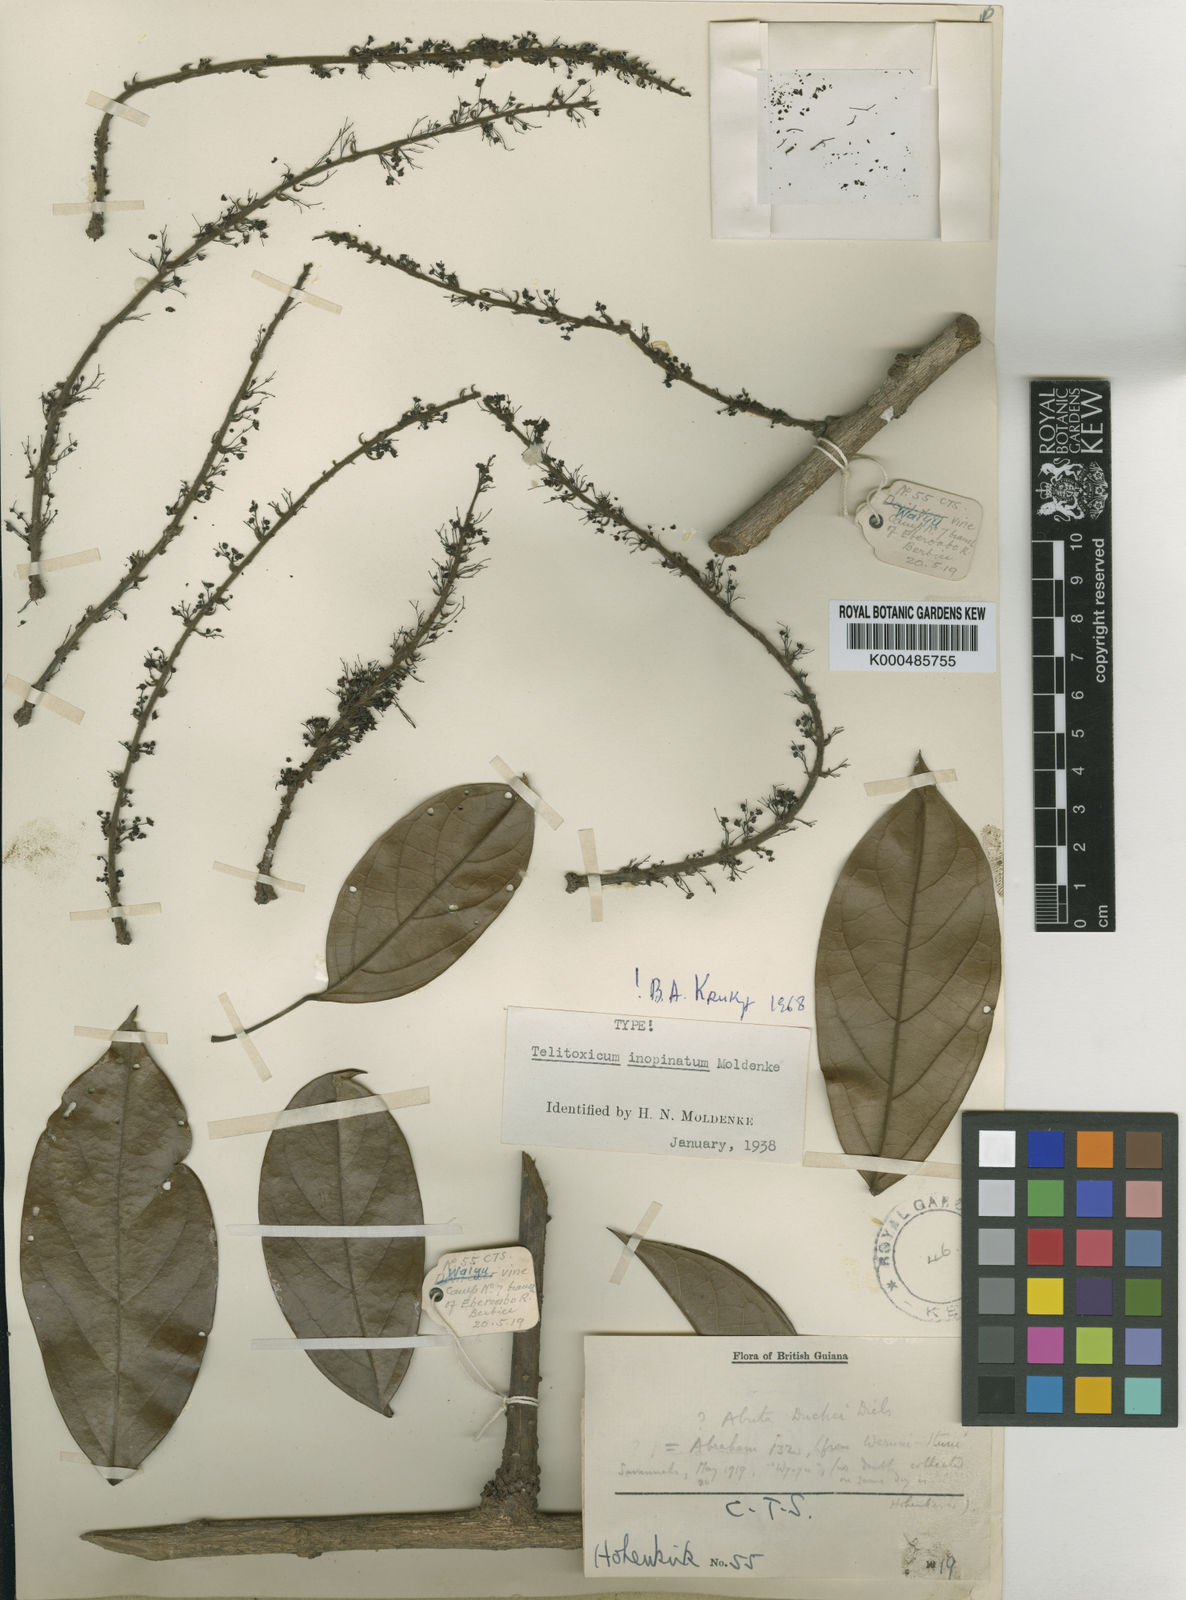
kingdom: Plantae
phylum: Tracheophyta
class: Magnoliopsida
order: Ranunculales
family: Menispermaceae
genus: Telitoxicum
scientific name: Telitoxicum inopinatum
